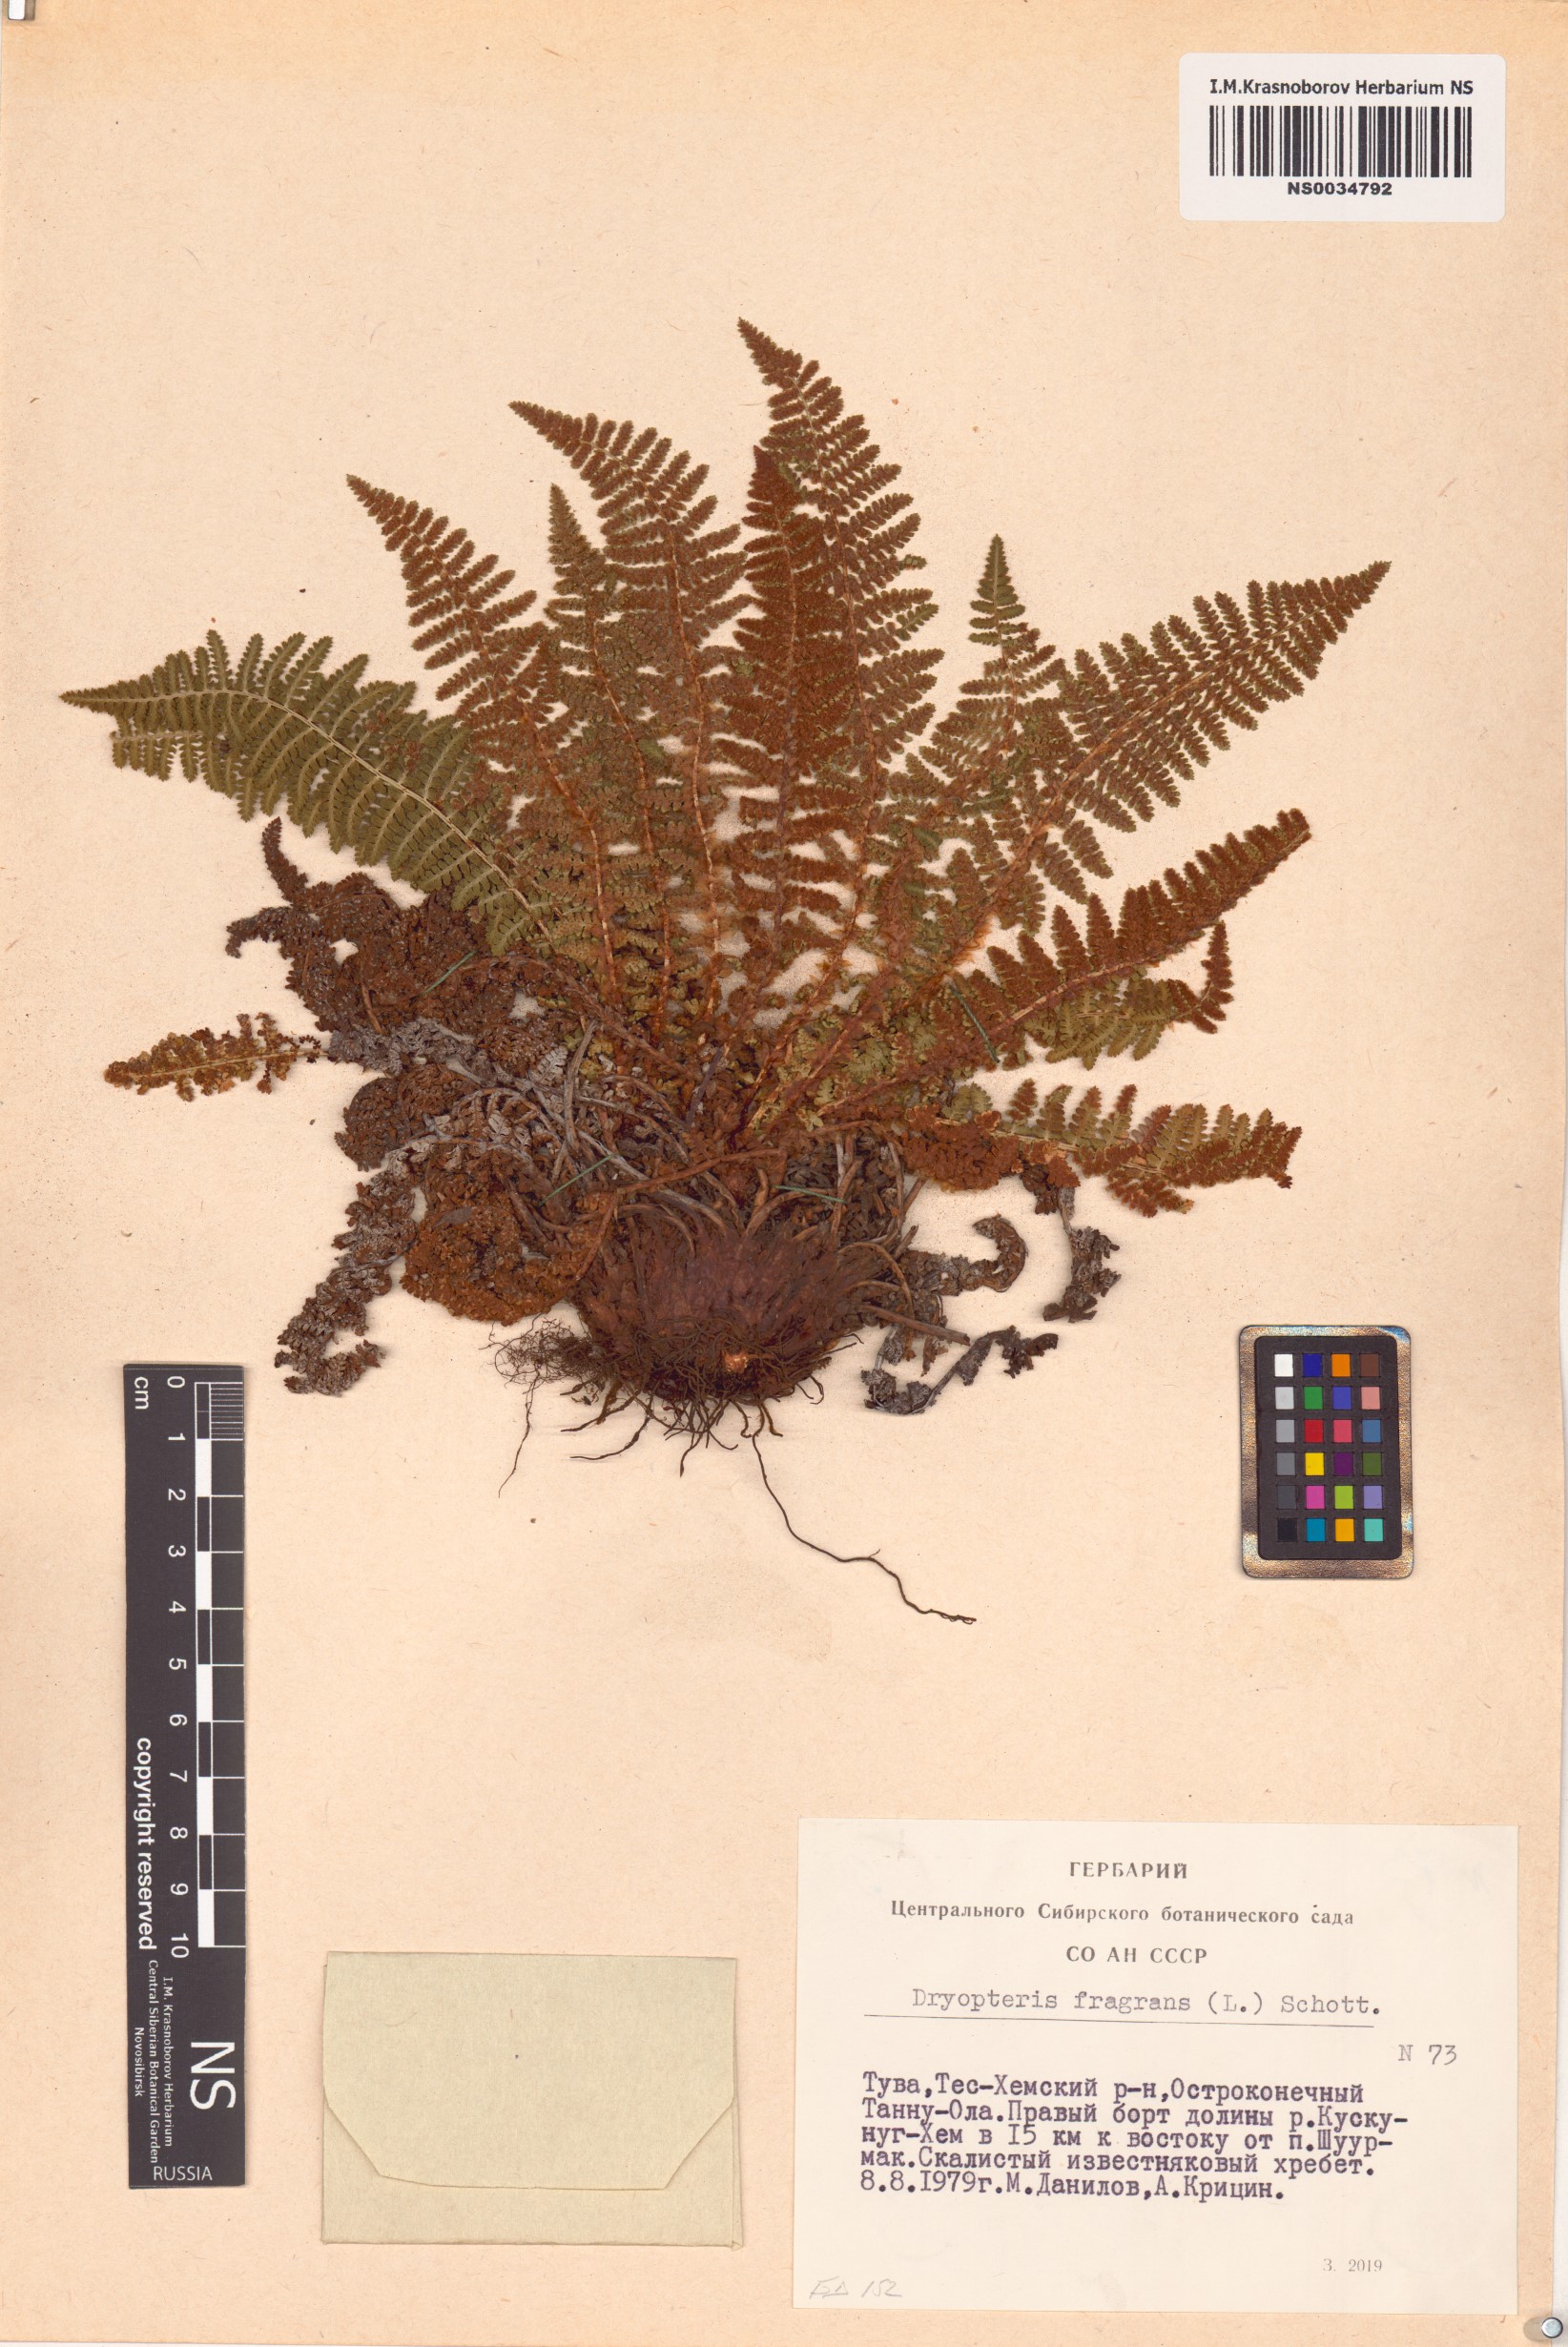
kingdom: Plantae
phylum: Tracheophyta
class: Polypodiopsida
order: Polypodiales
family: Dryopteridaceae
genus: Dryopteris
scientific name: Dryopteris fragrans
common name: Fragrant wood fern
